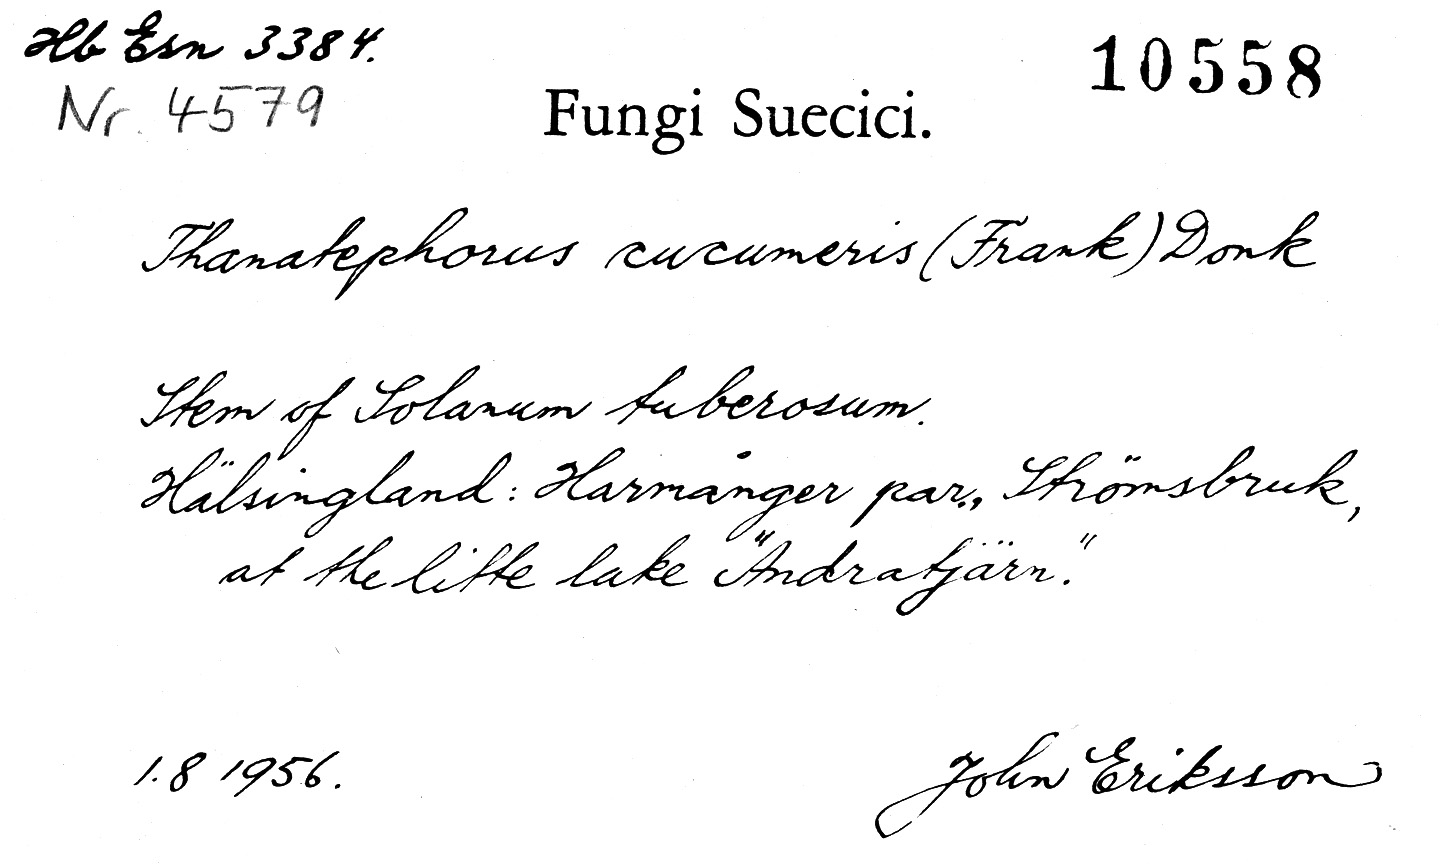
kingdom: Plantae
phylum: Tracheophyta
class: Magnoliopsida
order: Solanales
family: Solanaceae
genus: Solanum
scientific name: Solanum tuberosum
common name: Potato
